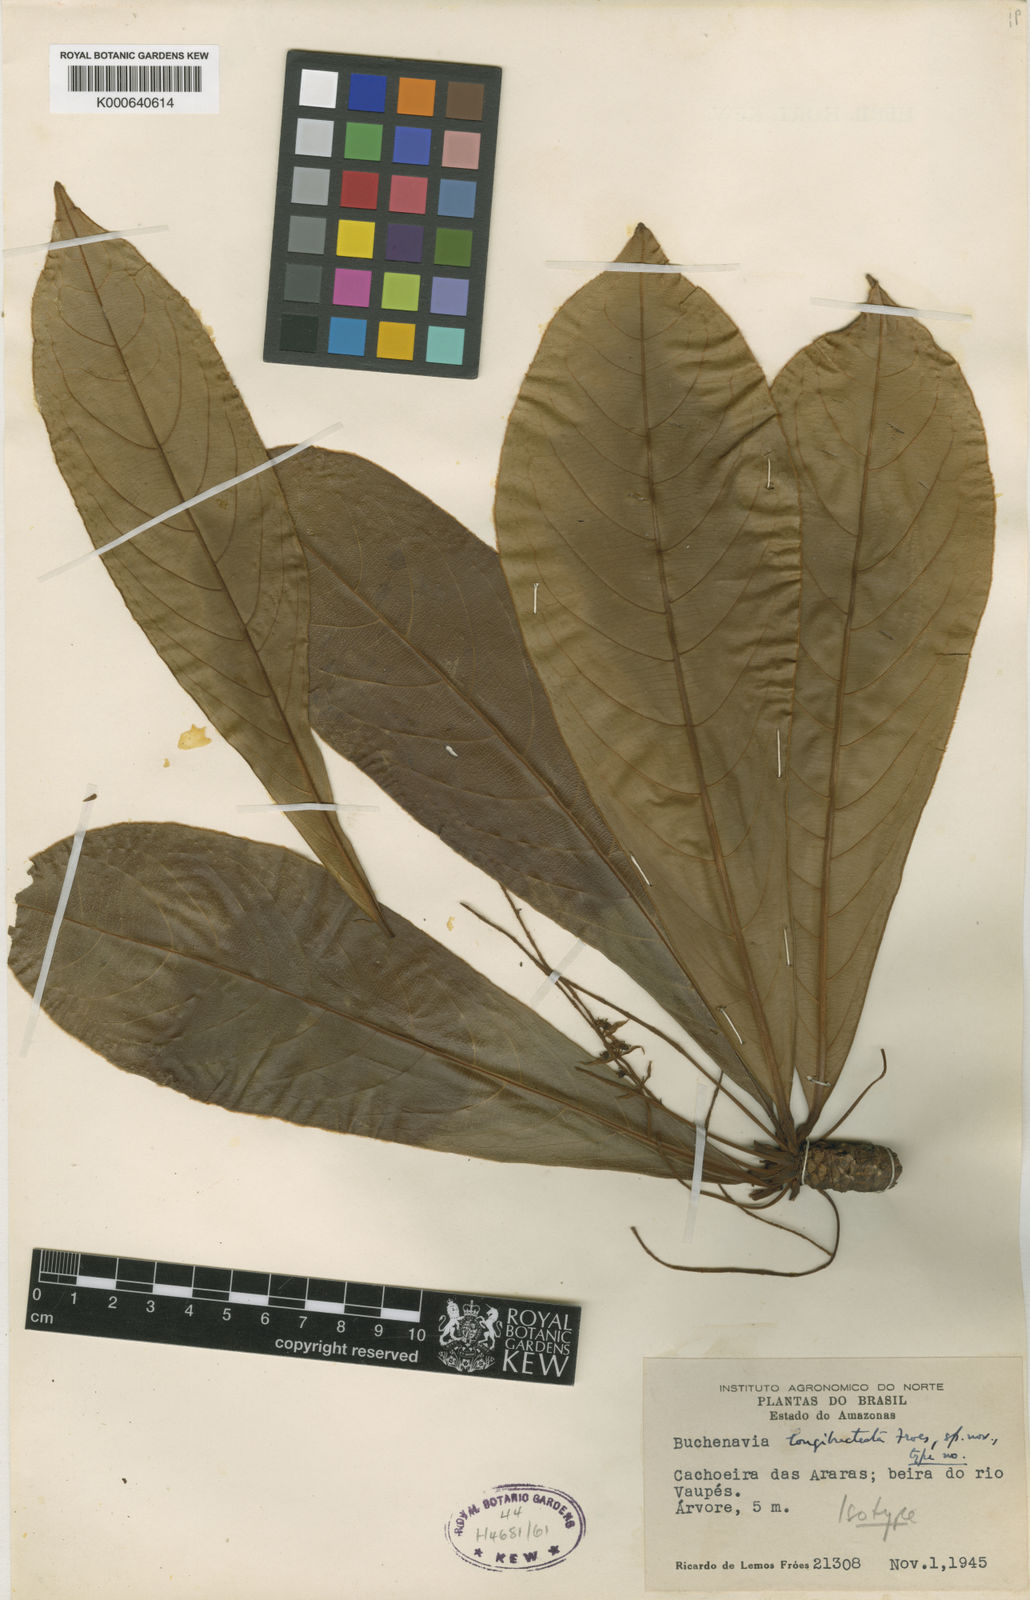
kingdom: Plantae
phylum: Tracheophyta
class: Magnoliopsida
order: Myrtales
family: Combretaceae
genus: Terminalia
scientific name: Terminalia congesta
